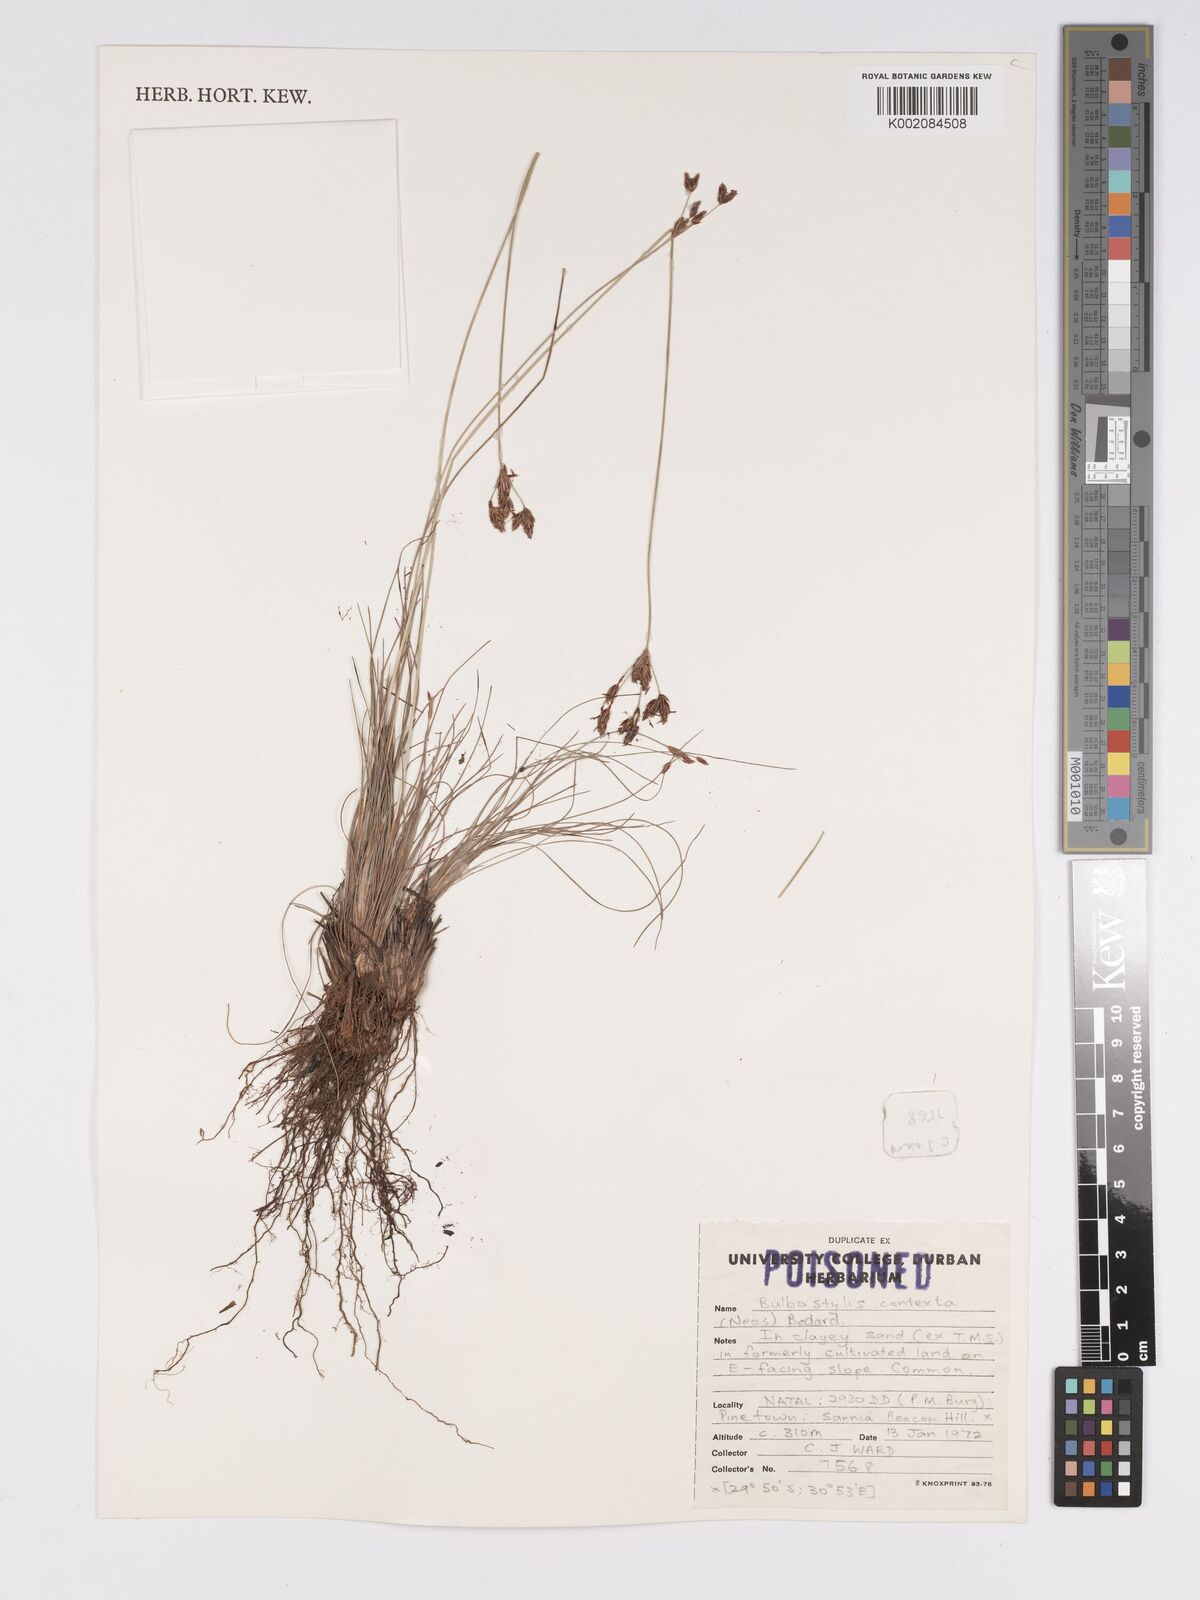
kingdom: Plantae
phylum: Tracheophyta
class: Liliopsida
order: Poales
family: Cyperaceae
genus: Bulbostylis
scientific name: Bulbostylis contexta
